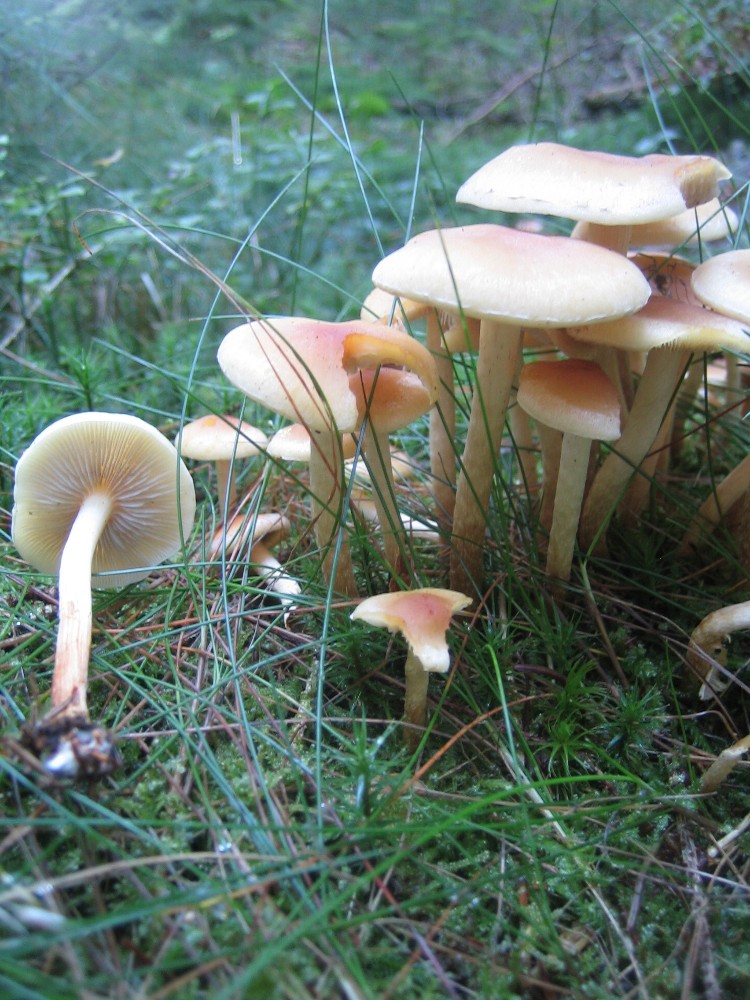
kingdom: Fungi
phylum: Basidiomycota
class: Agaricomycetes
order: Agaricales
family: Strophariaceae
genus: Hypholoma
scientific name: Hypholoma capnoides
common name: gran-svovlhat
